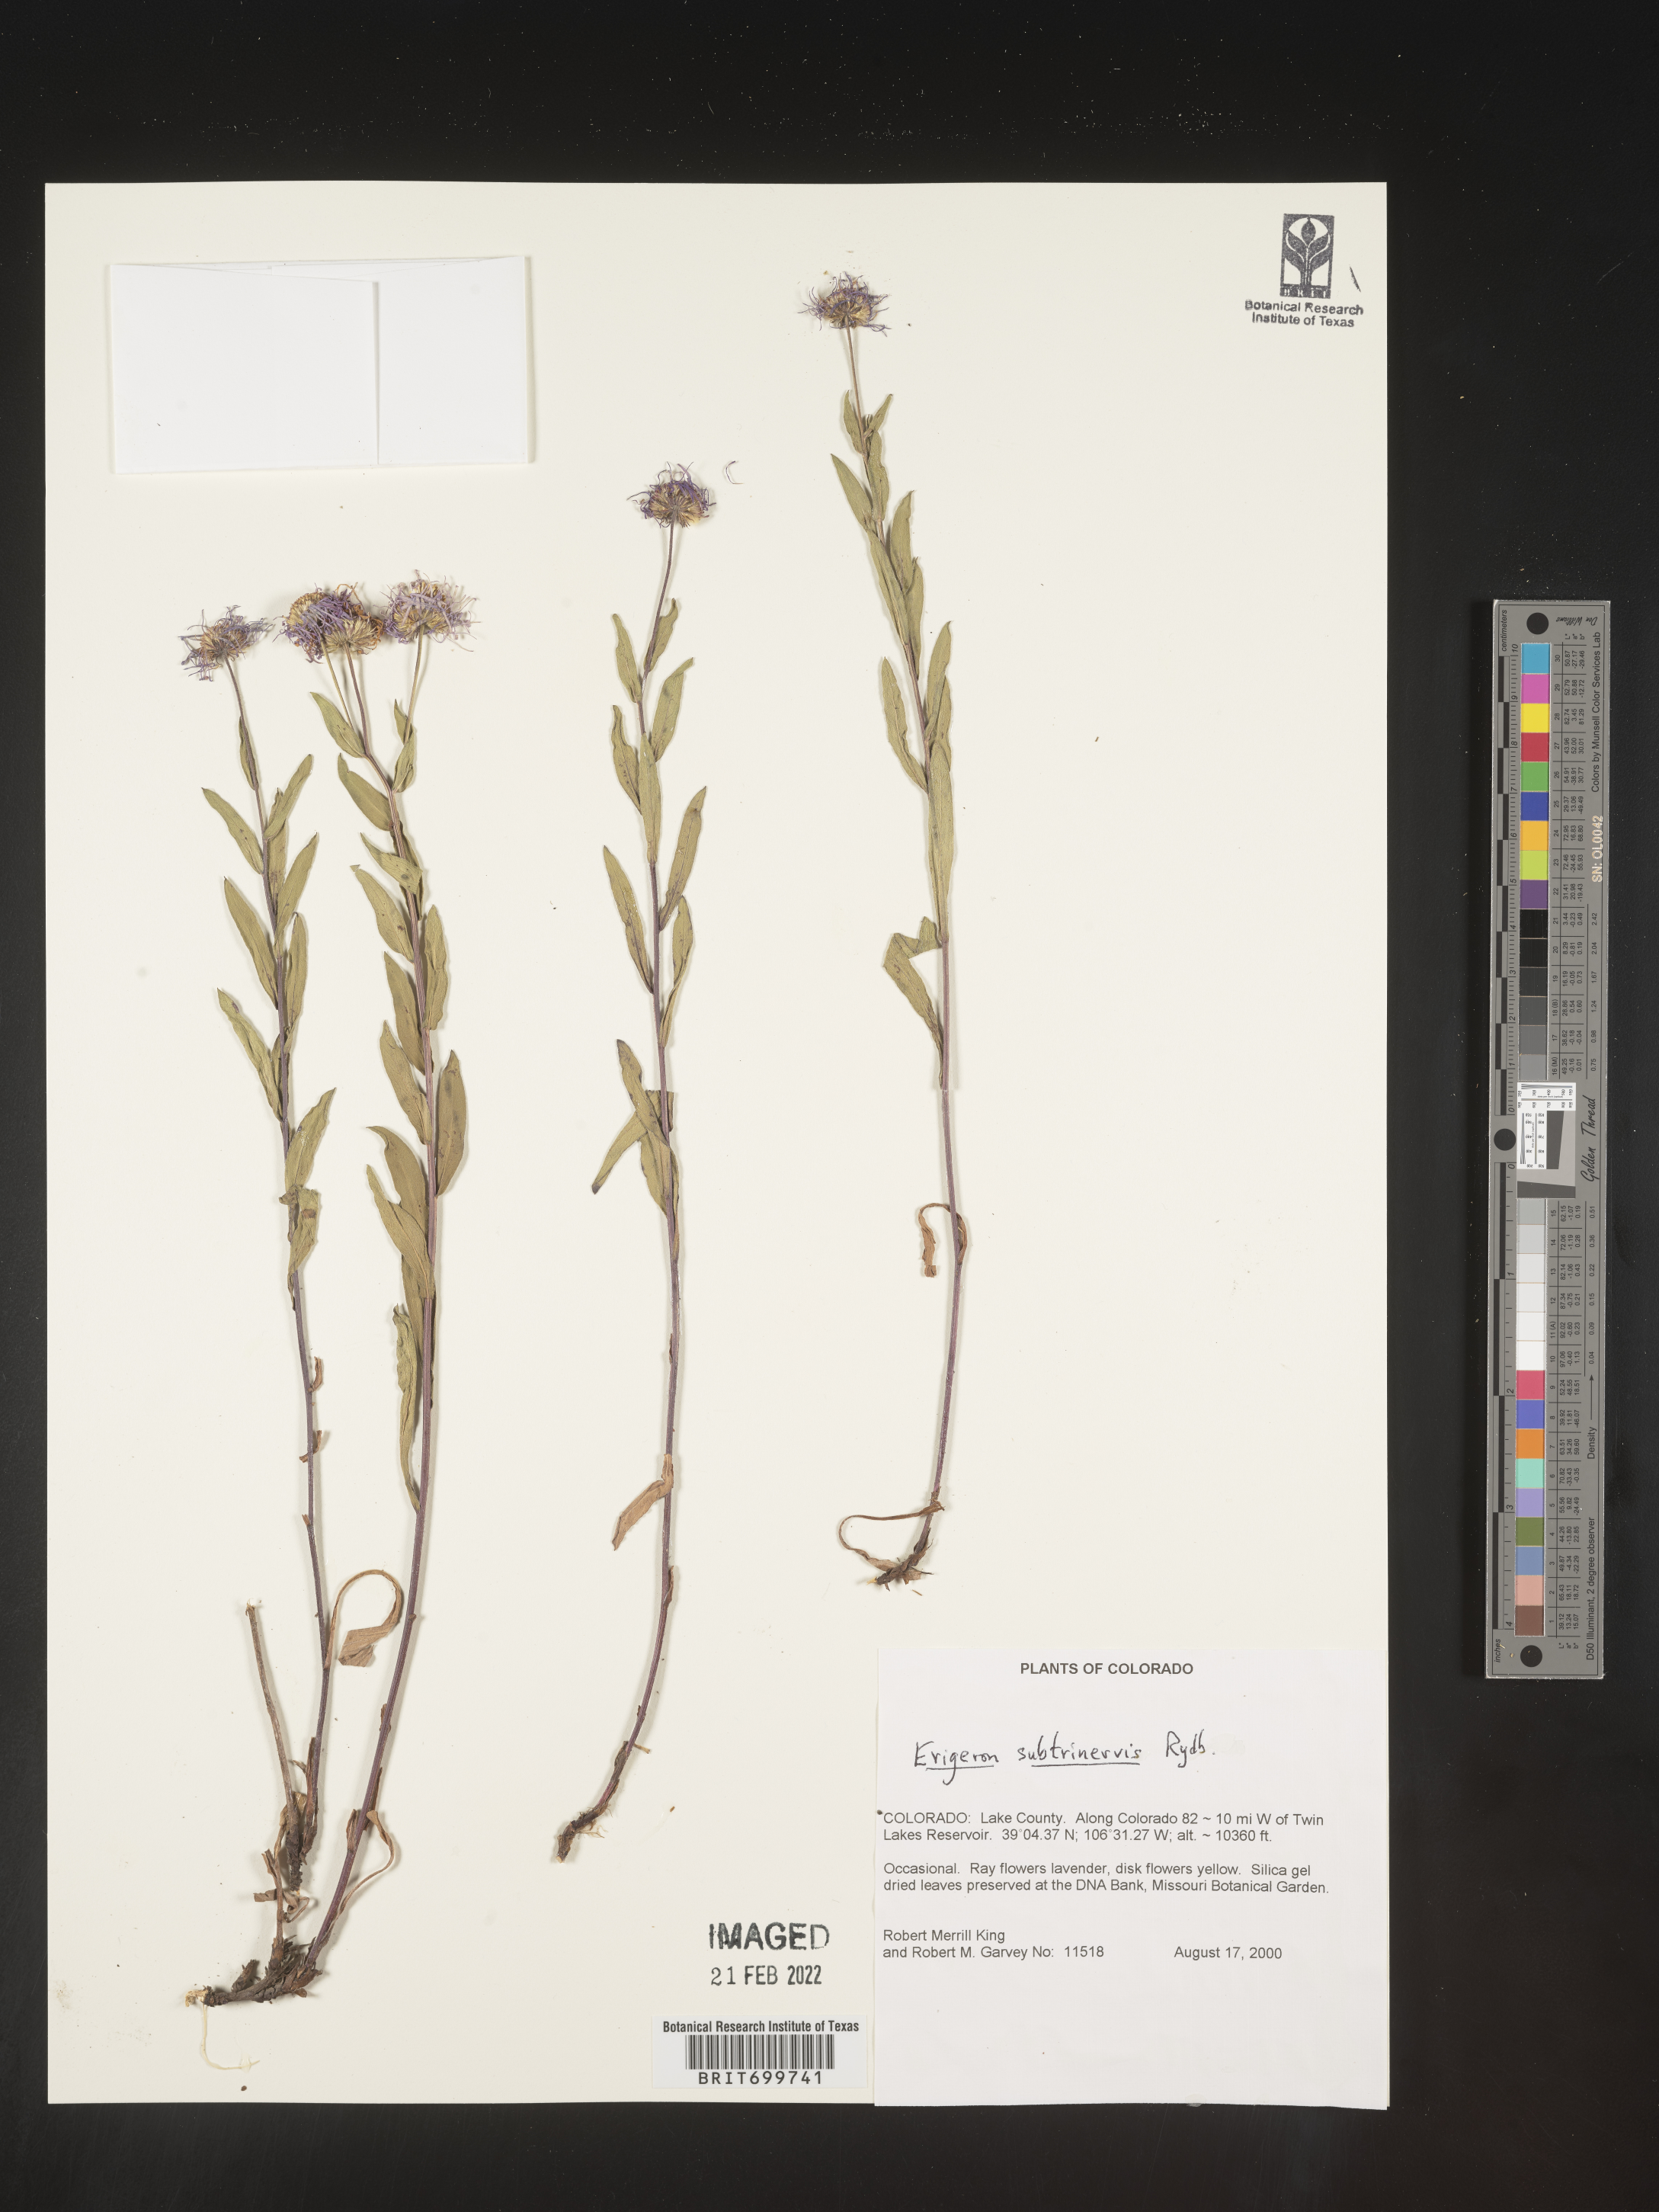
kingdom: Plantae
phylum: Tracheophyta
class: Magnoliopsida
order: Asterales
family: Asteraceae
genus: Erigeron
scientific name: Erigeron subtrinervis
